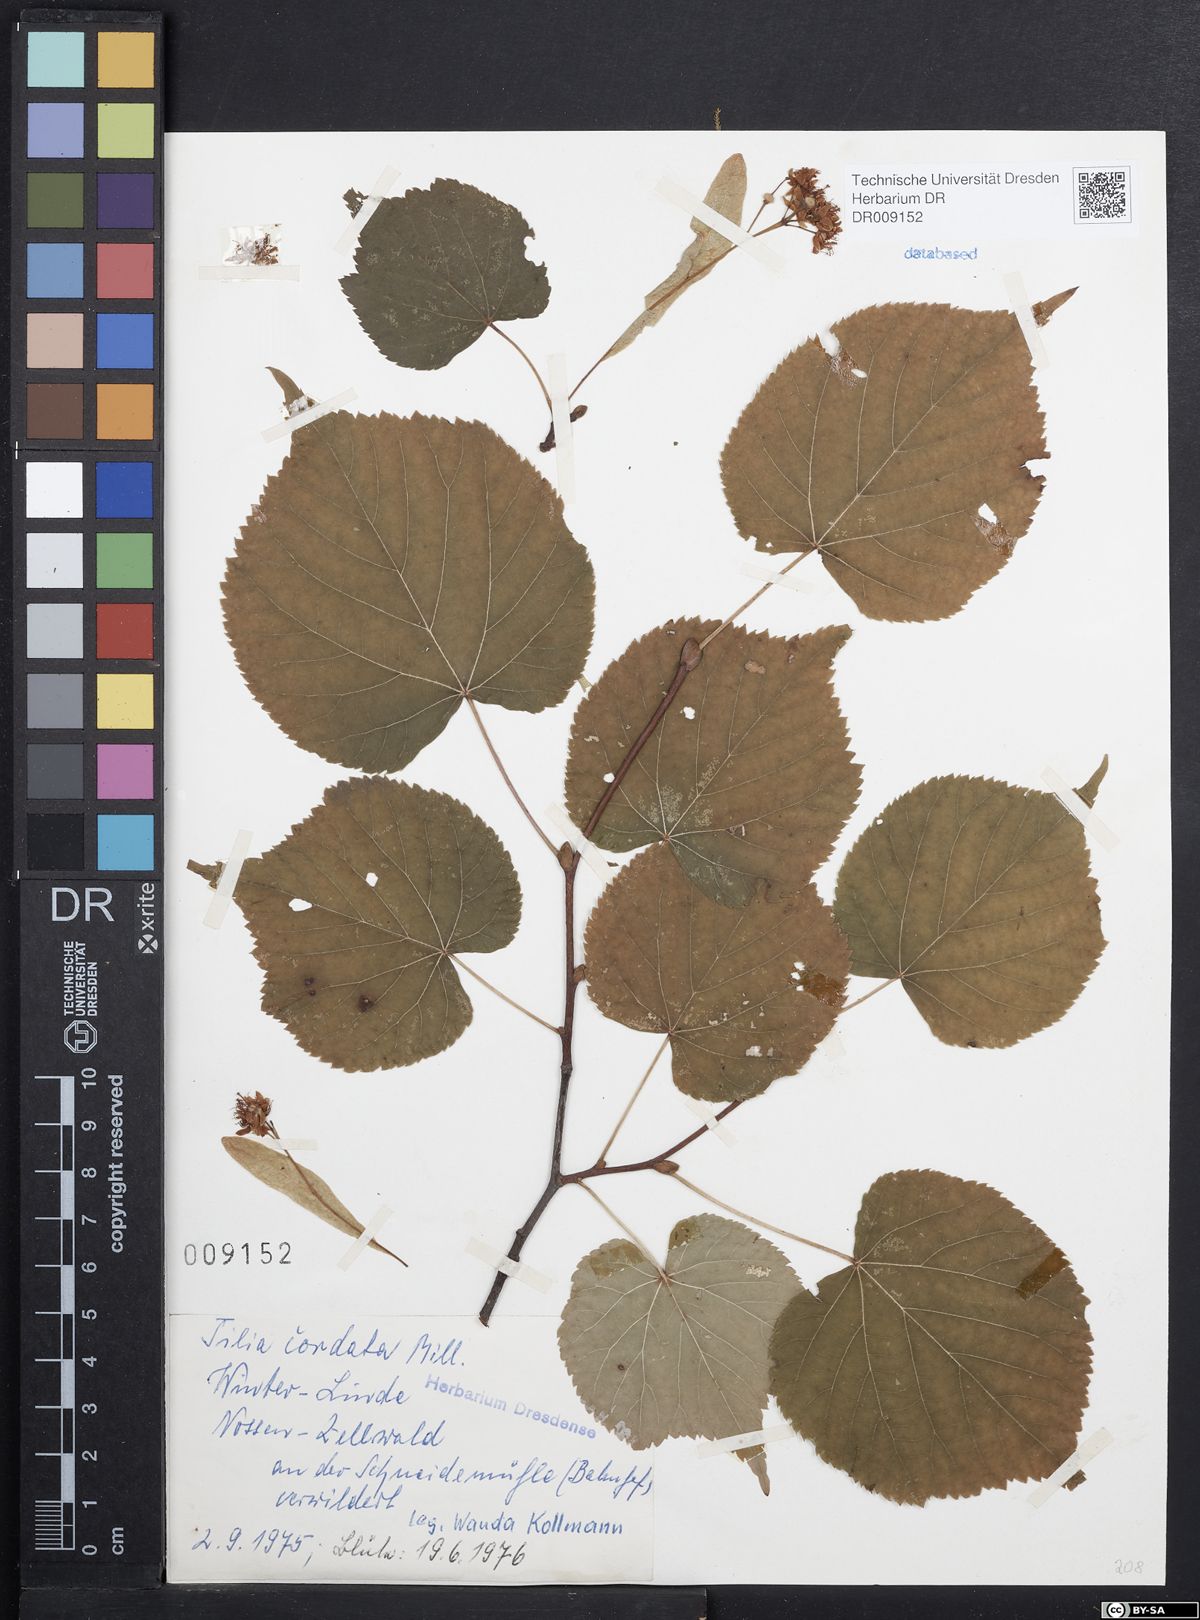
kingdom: Plantae
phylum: Tracheophyta
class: Magnoliopsida
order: Malvales
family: Malvaceae
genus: Tilia
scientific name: Tilia cordata
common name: Small-leaved lime
